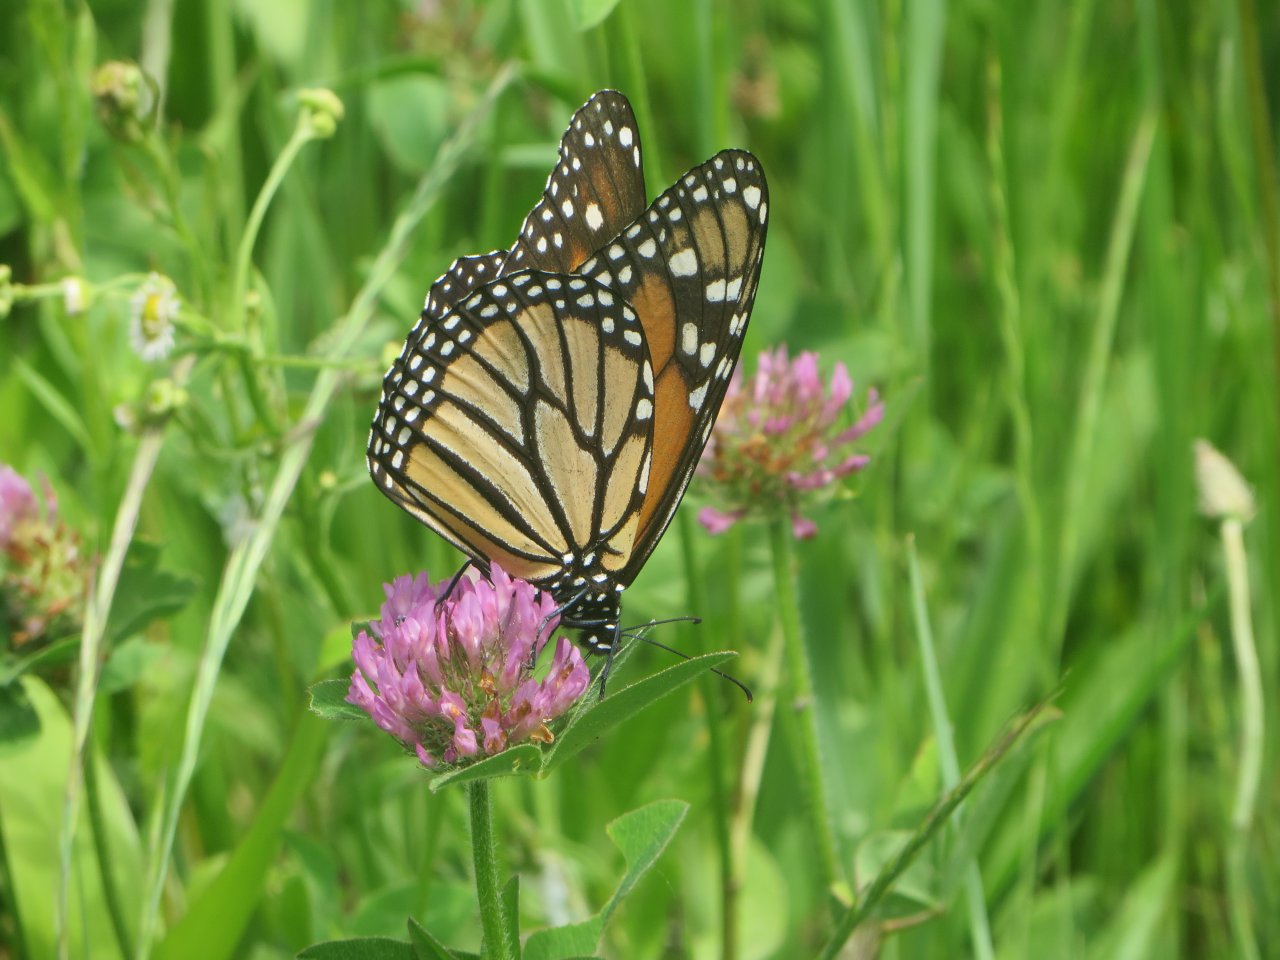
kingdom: Animalia
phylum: Arthropoda
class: Insecta
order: Lepidoptera
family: Nymphalidae
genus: Danaus
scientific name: Danaus plexippus
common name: Monarch
